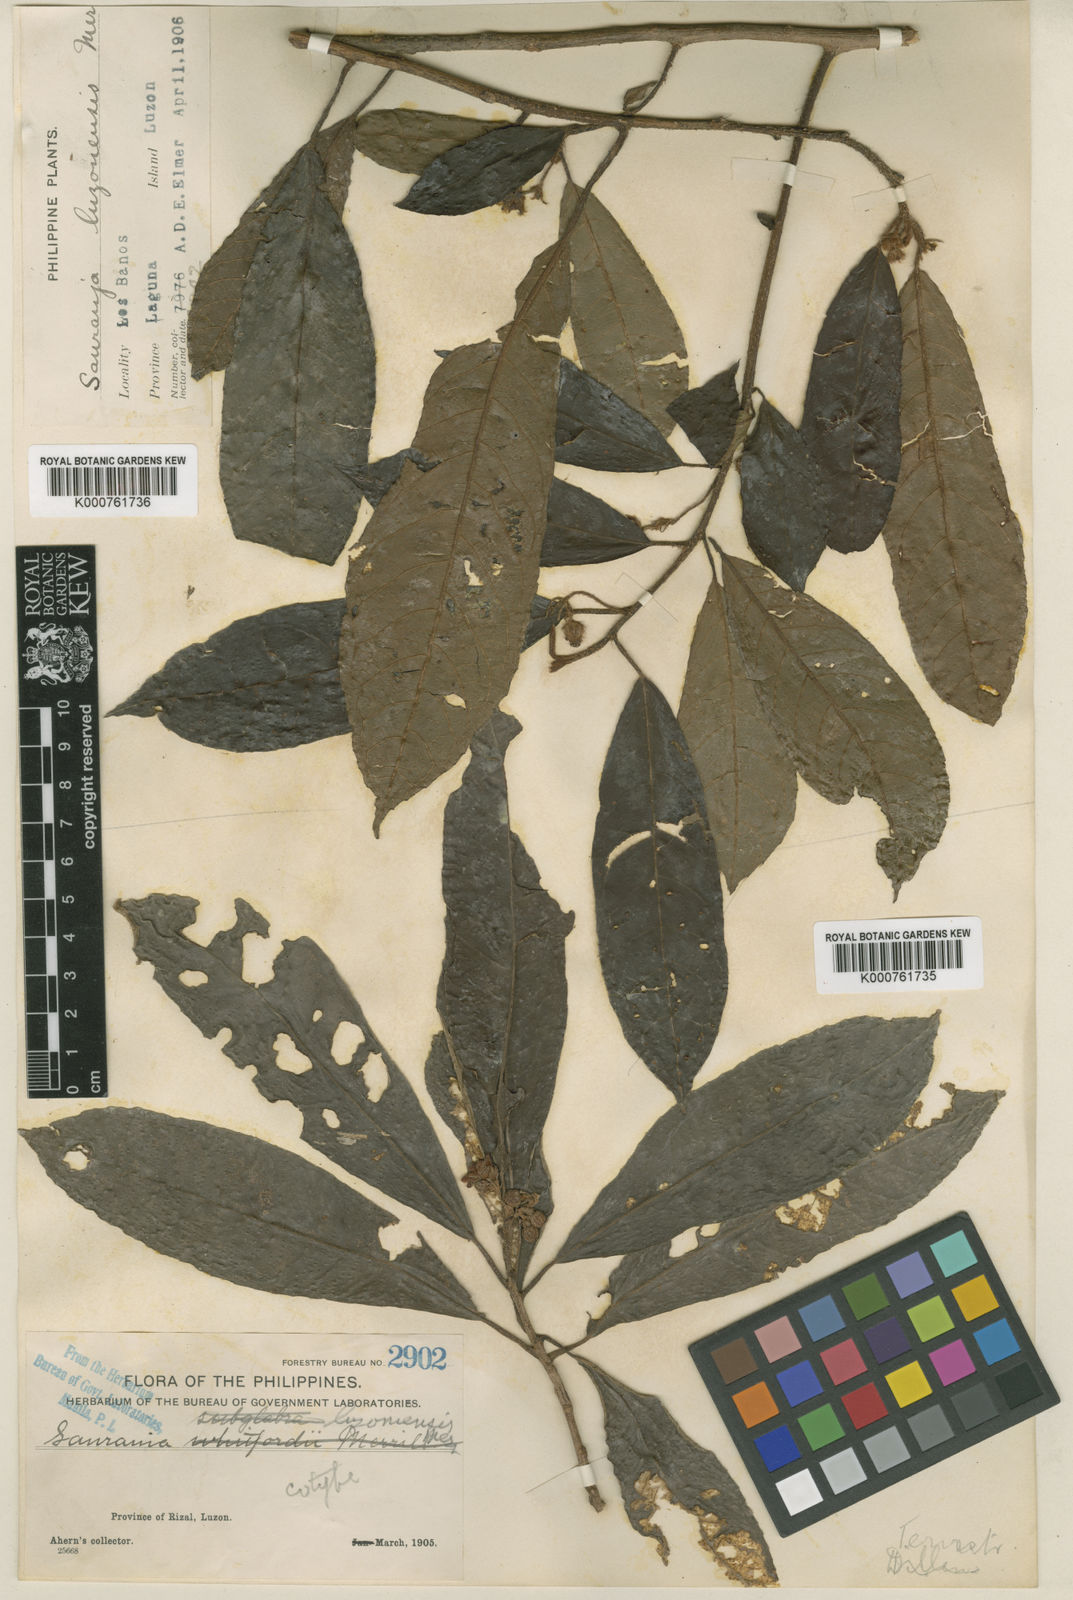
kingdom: Plantae
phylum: Tracheophyta
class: Magnoliopsida
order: Ericales
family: Actinidiaceae
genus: Saurauia
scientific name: Saurauia luzoniensis
